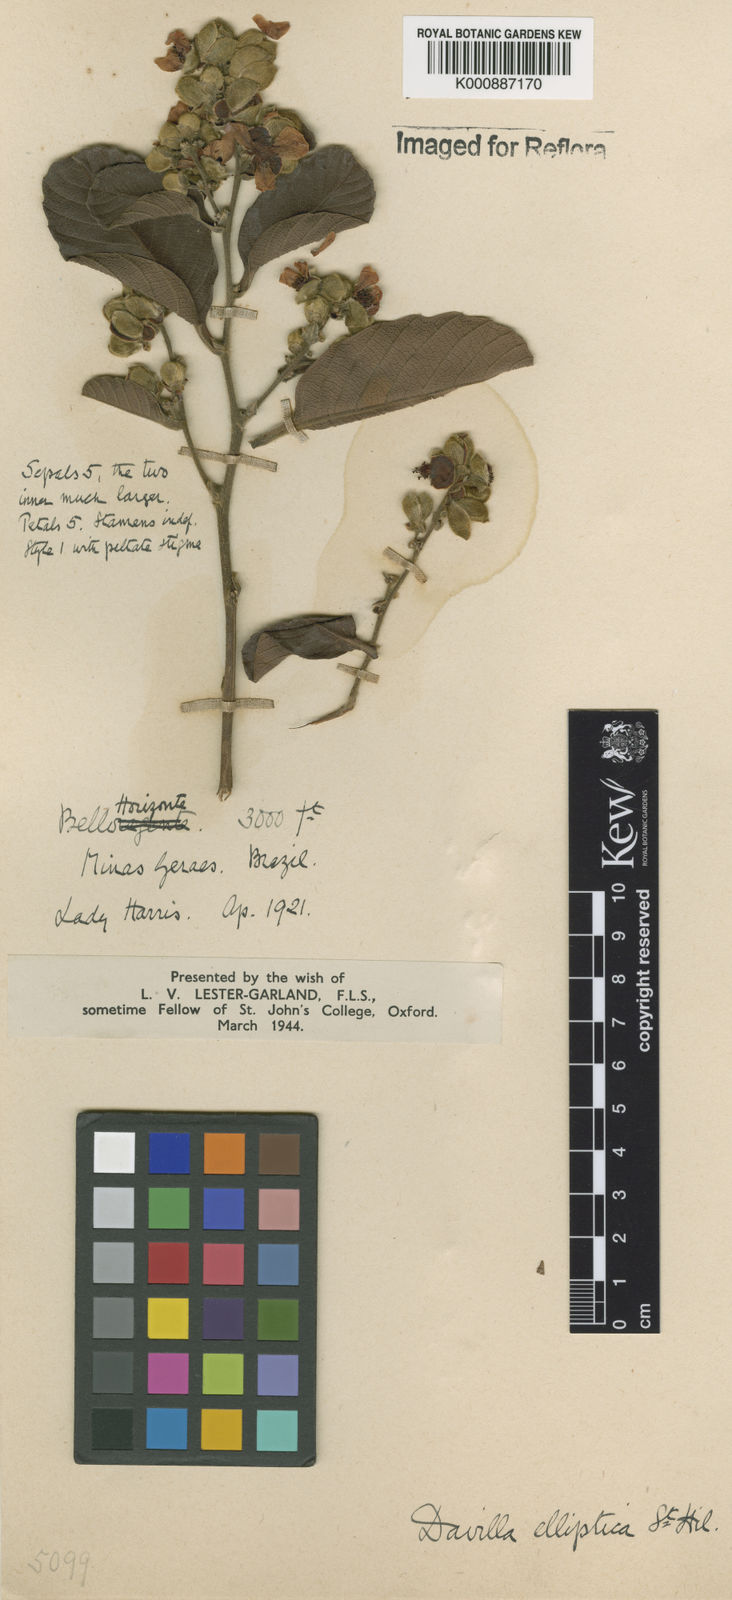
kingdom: Plantae
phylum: Tracheophyta
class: Magnoliopsida
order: Dilleniales
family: Dilleniaceae
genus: Davilla
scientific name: Davilla elliptica
